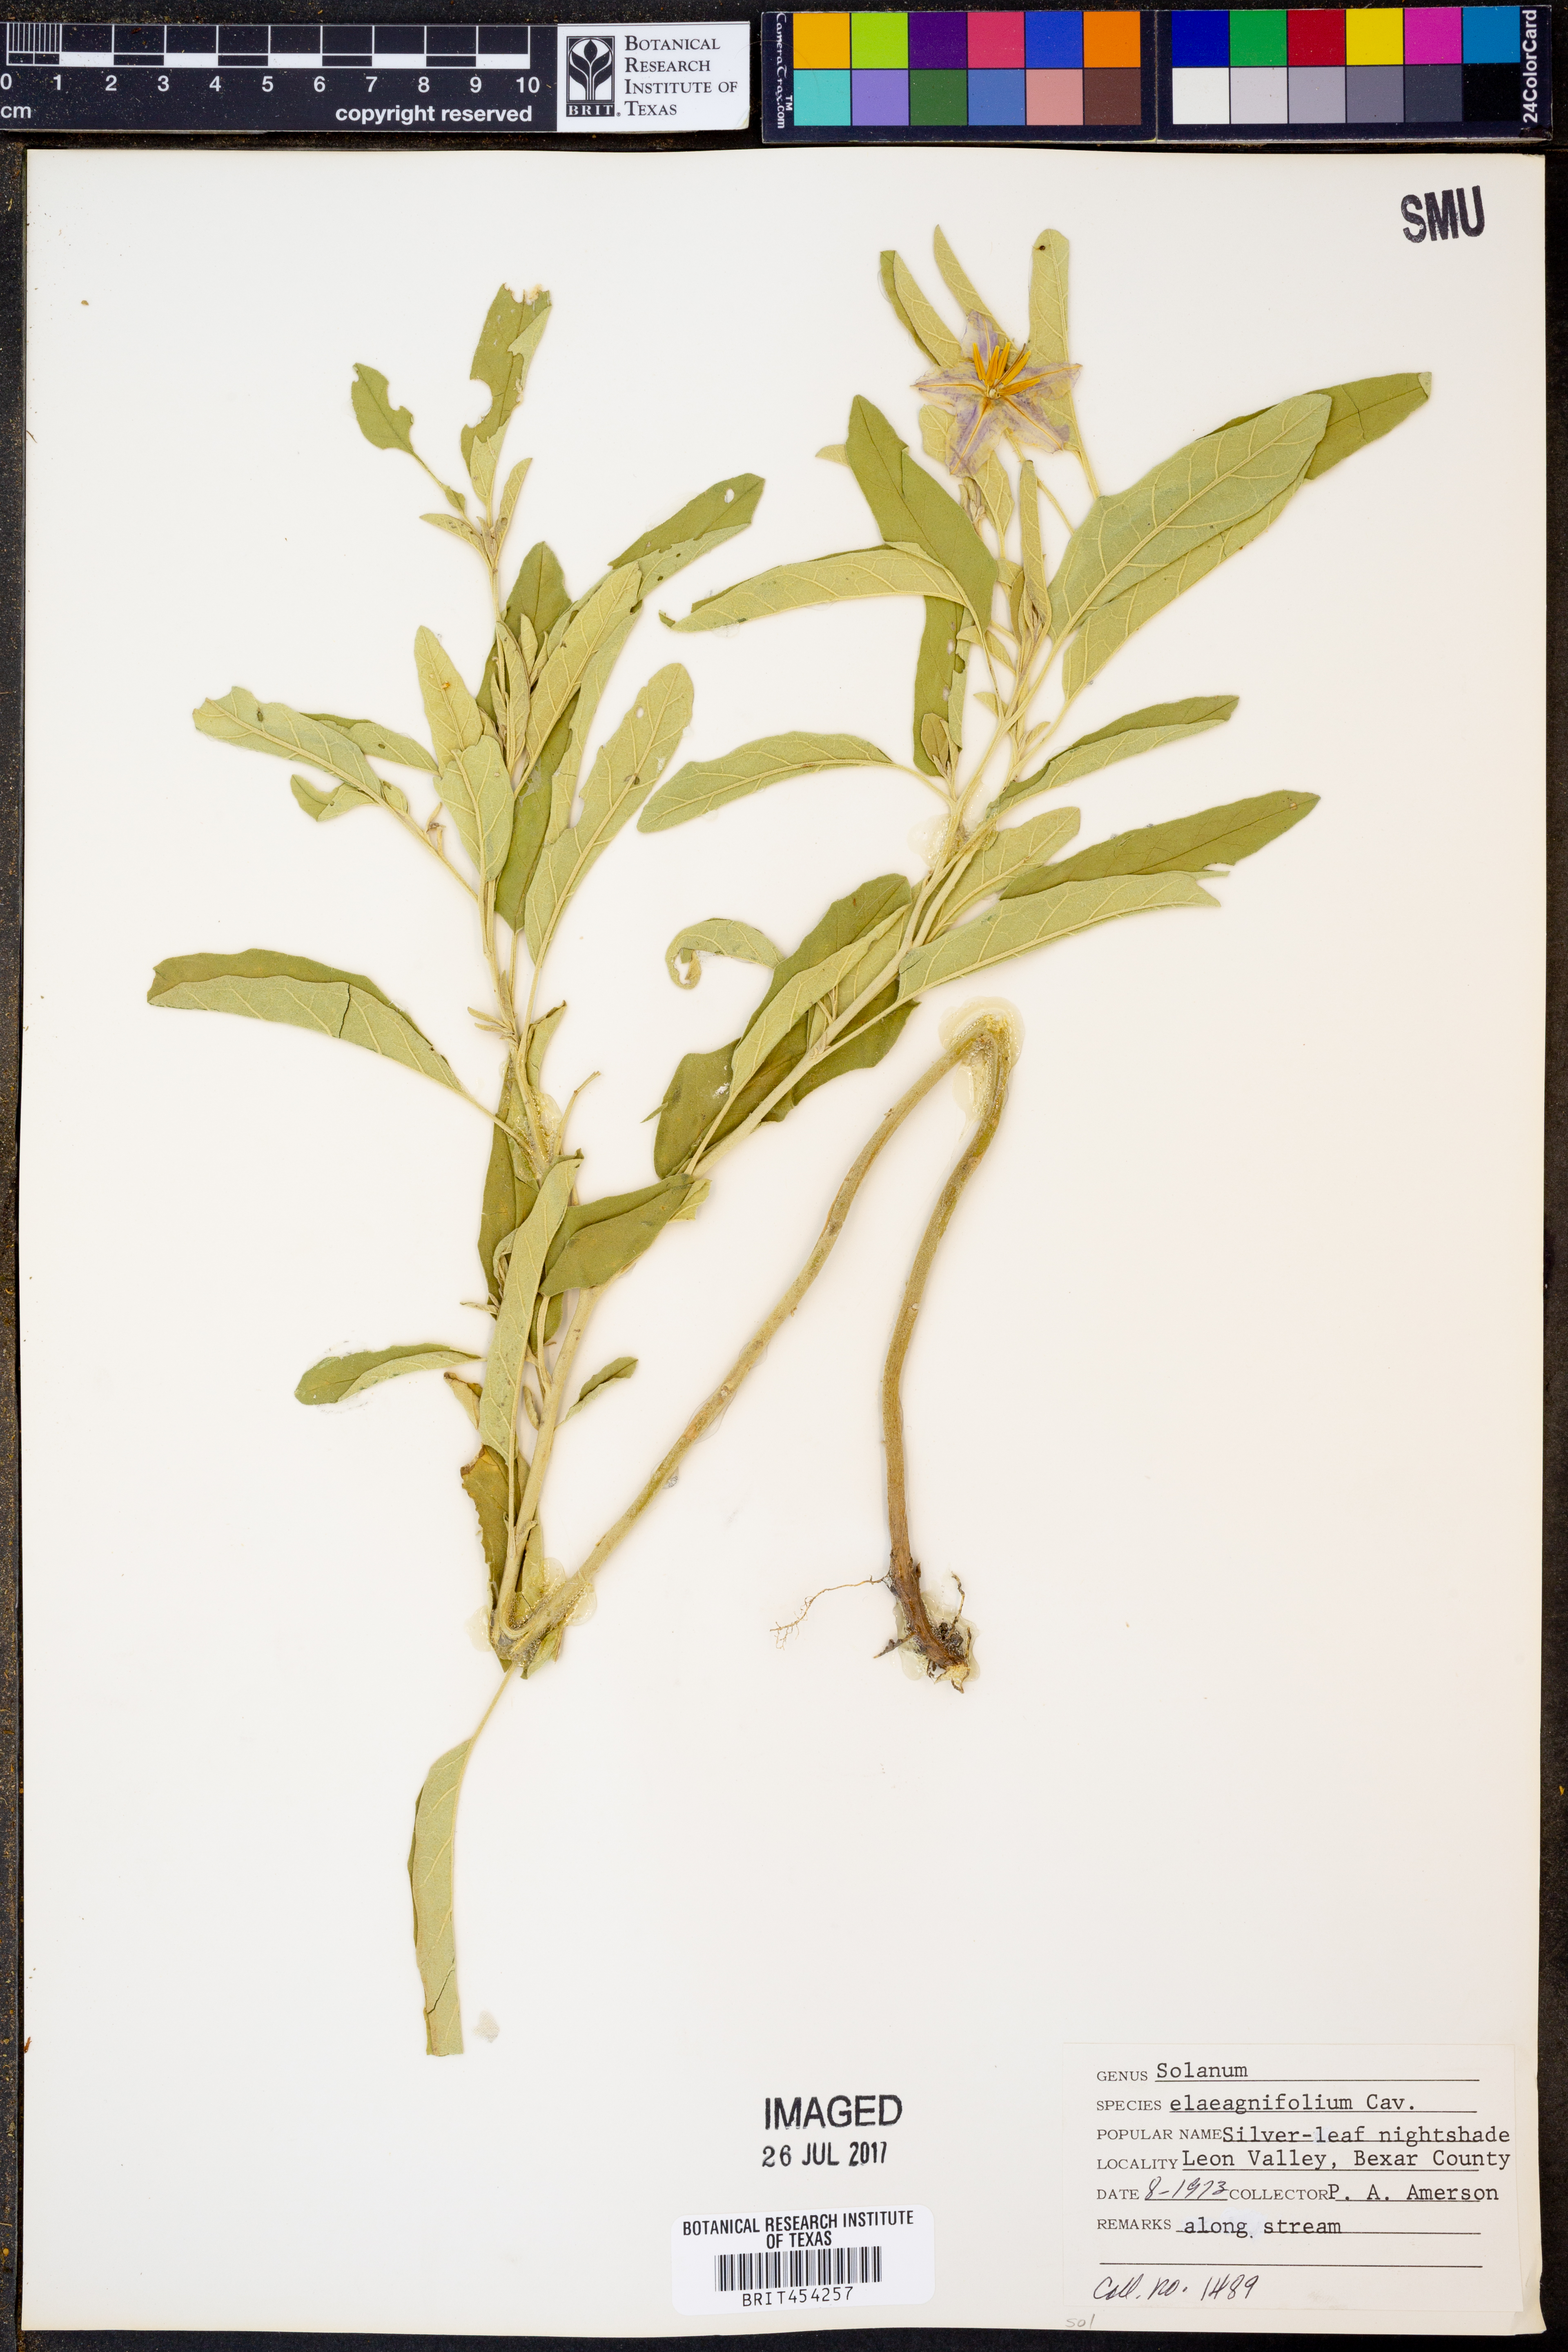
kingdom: Plantae
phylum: Tracheophyta
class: Magnoliopsida
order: Solanales
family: Solanaceae
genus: Solanum
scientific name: Solanum elaeagnifolium
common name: Silverleaf nightshade
